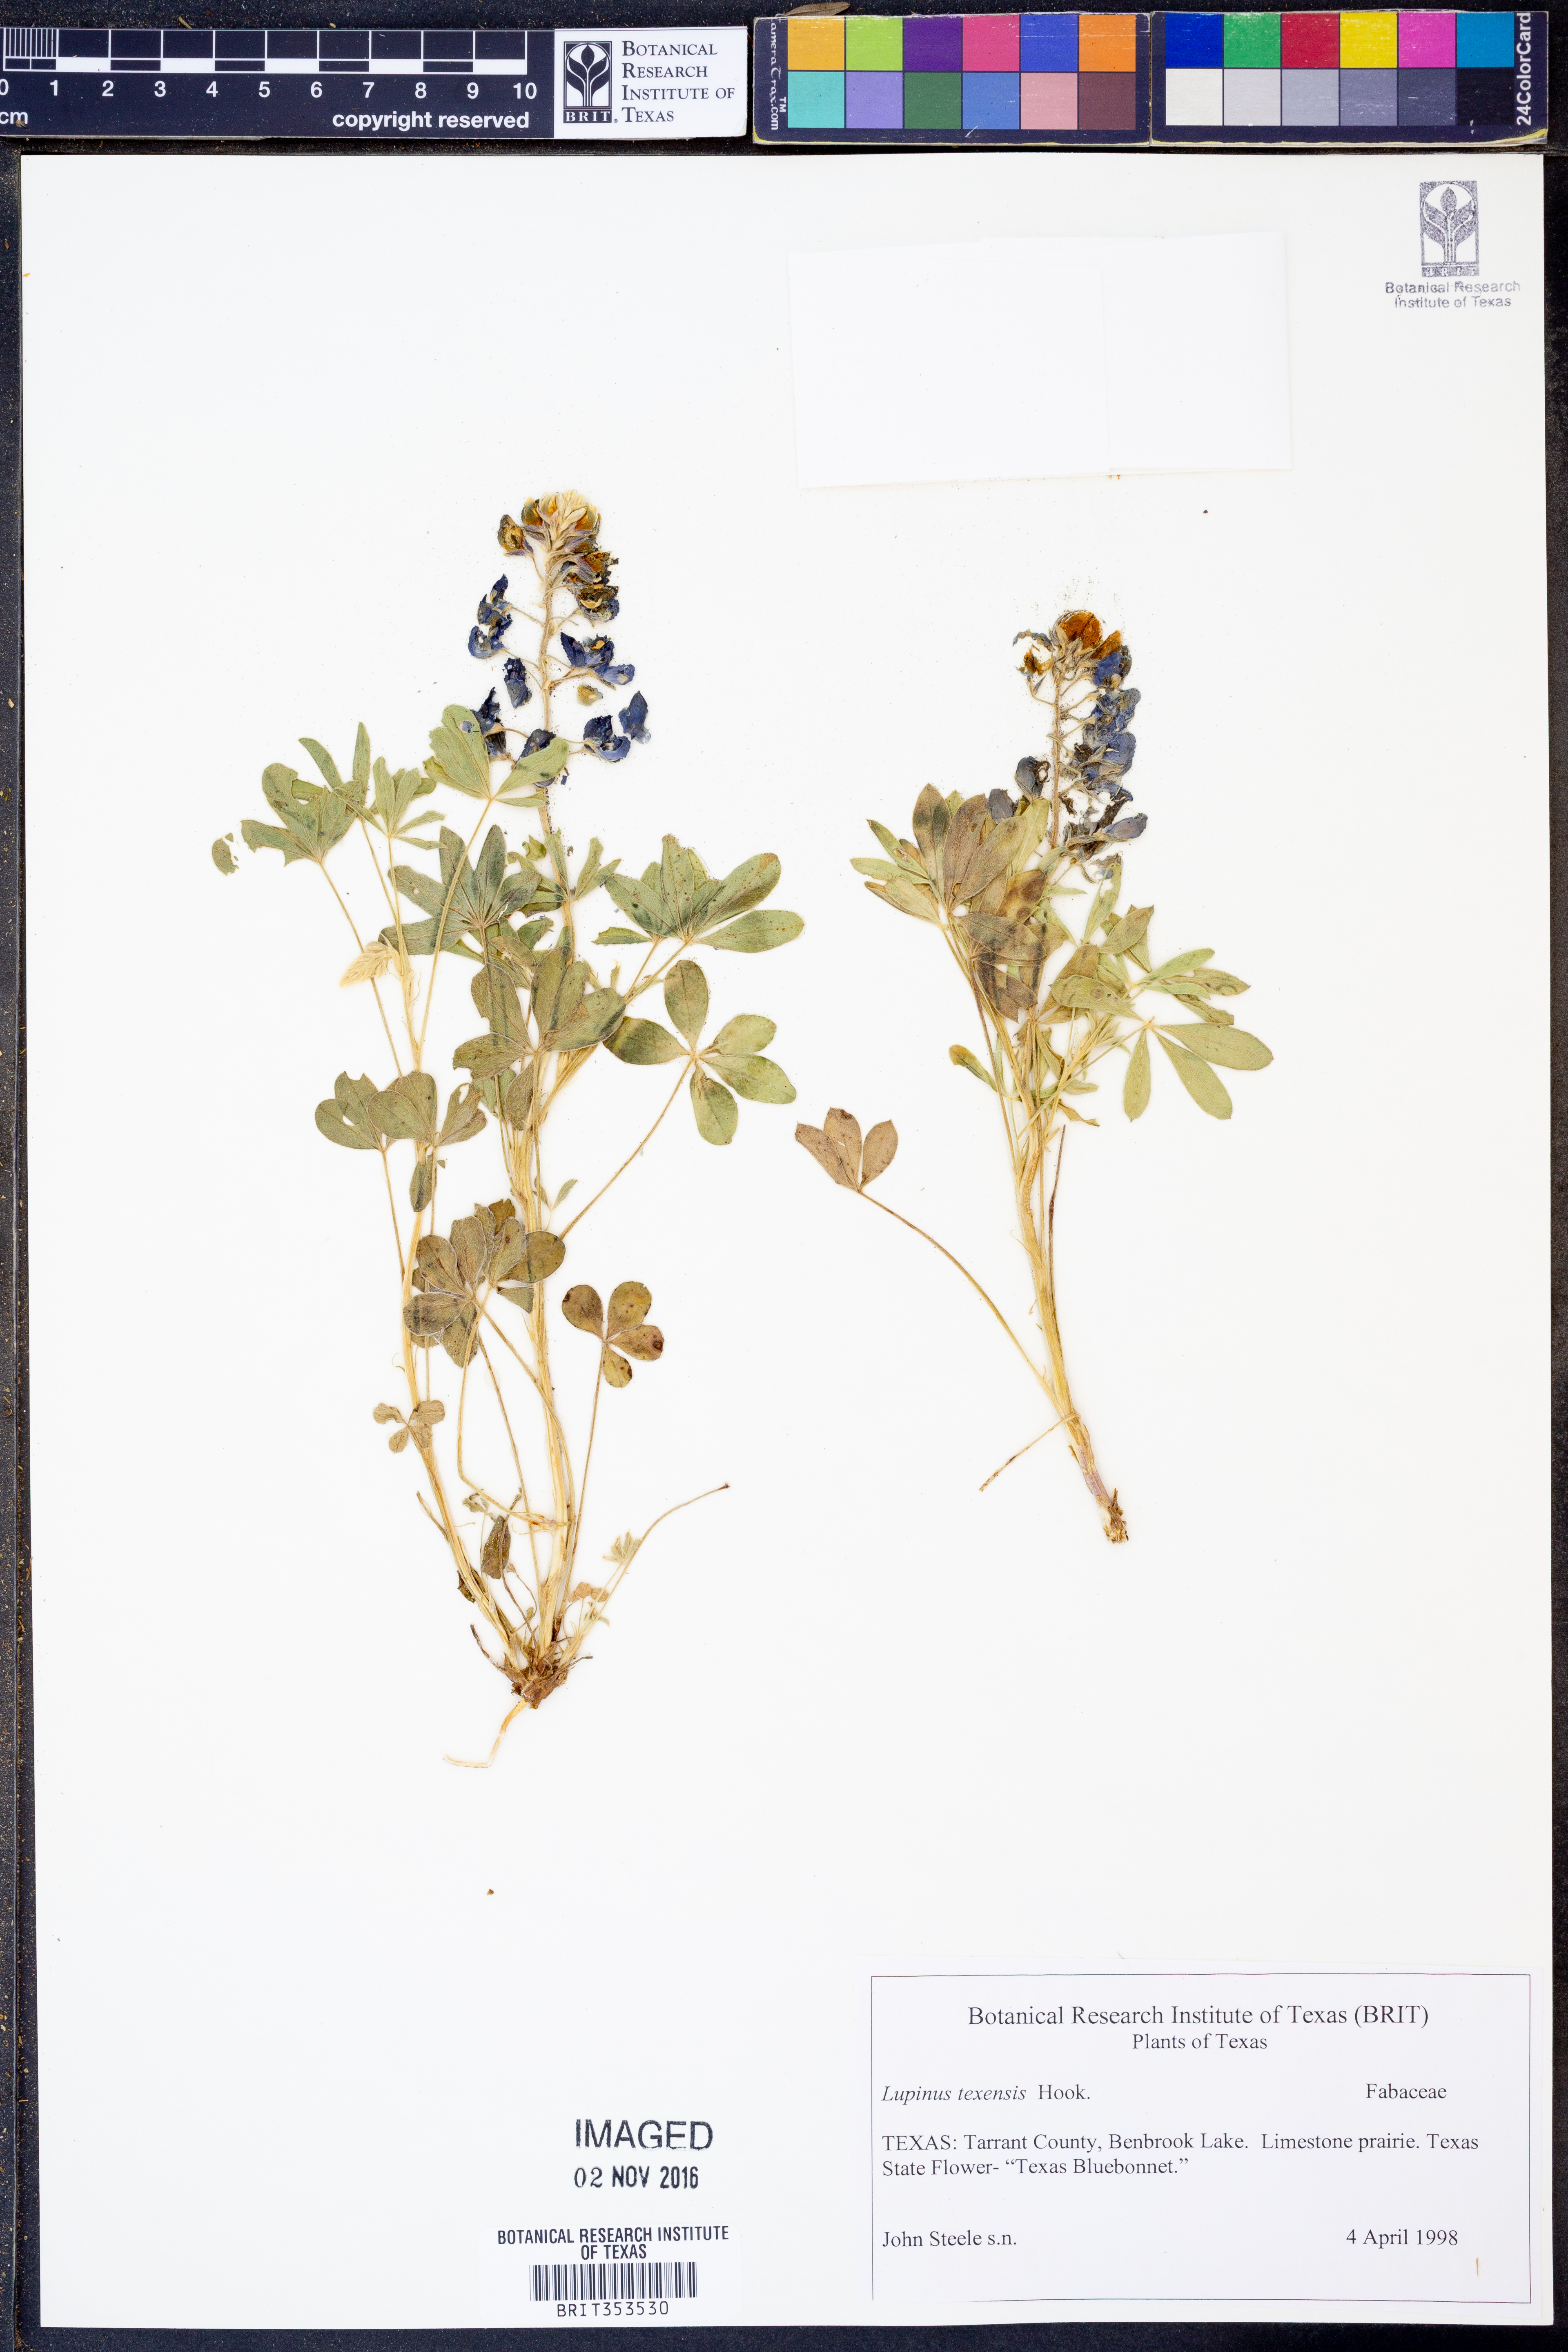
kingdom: Plantae
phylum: Tracheophyta
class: Magnoliopsida
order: Fabales
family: Fabaceae
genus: Lupinus
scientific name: Lupinus texensis
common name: Texas bluebonnet
